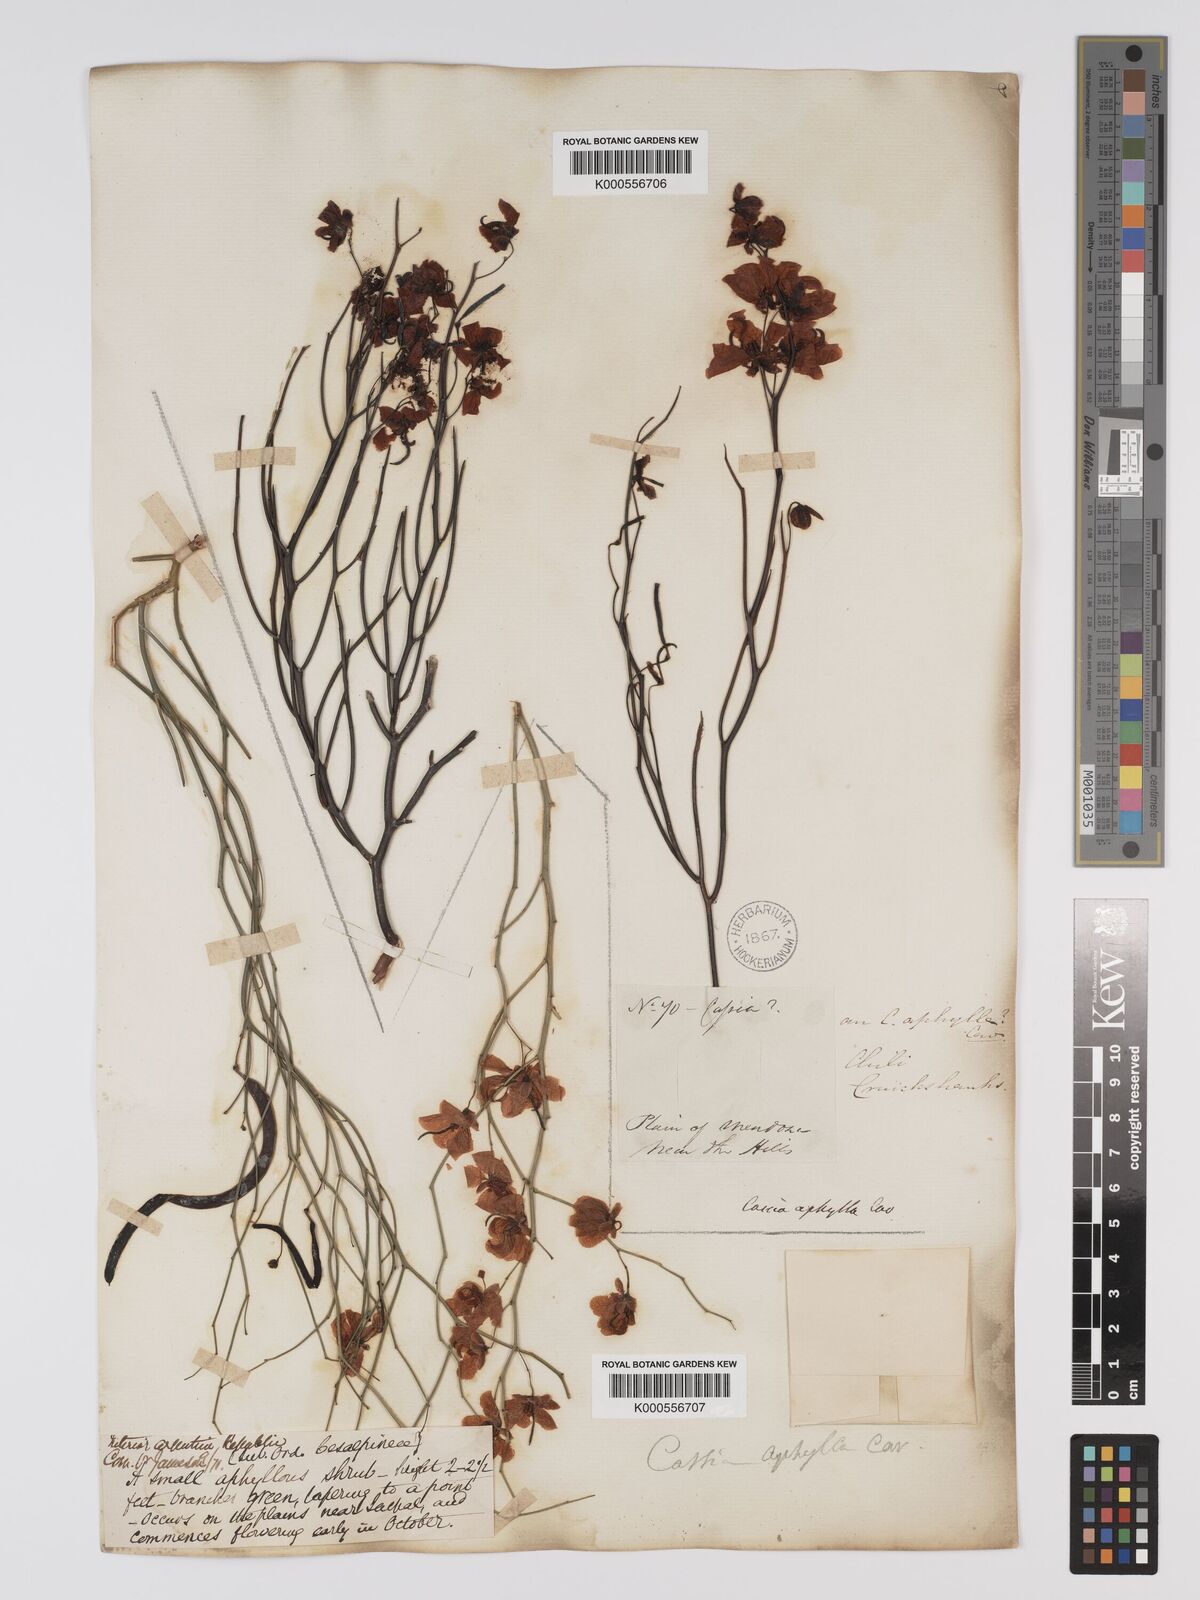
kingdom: Plantae
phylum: Tracheophyta
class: Magnoliopsida
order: Fabales
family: Fabaceae
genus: Senna
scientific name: Senna aphylla
